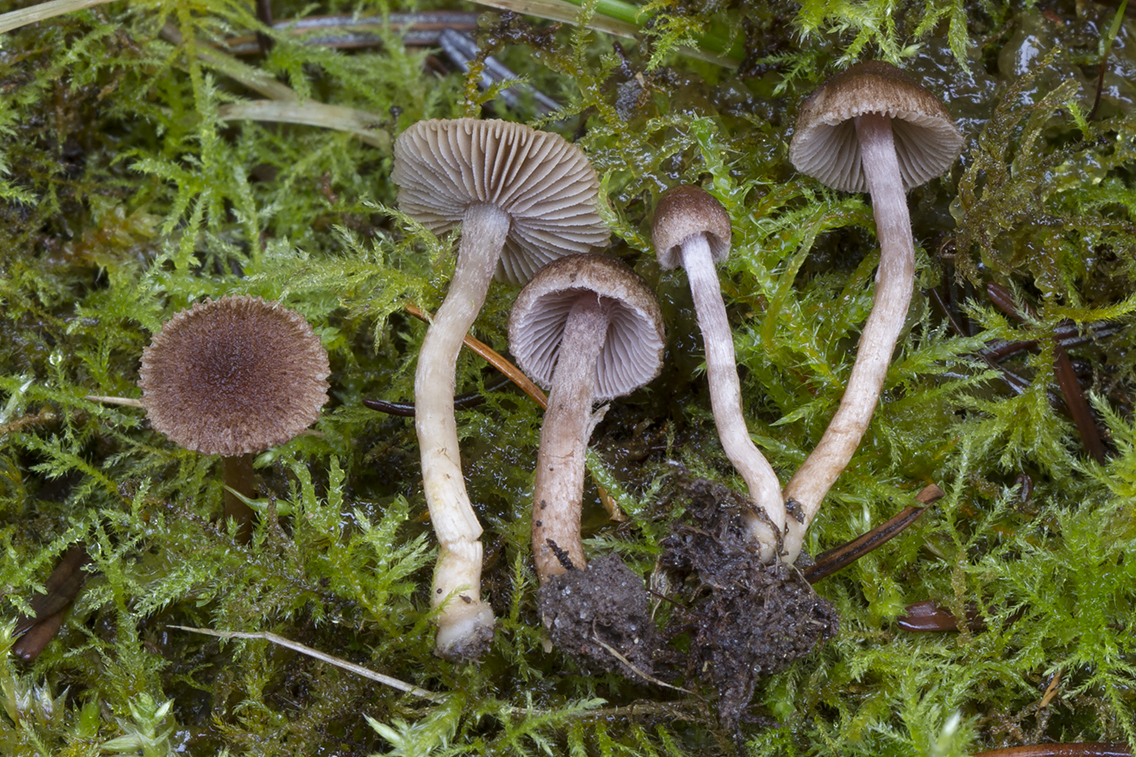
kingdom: Fungi
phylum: Basidiomycota
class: Agaricomycetes
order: Agaricales
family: Inocybaceae
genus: Inocybe
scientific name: Inocybe cincinnata
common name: lillabladet trævlhat
